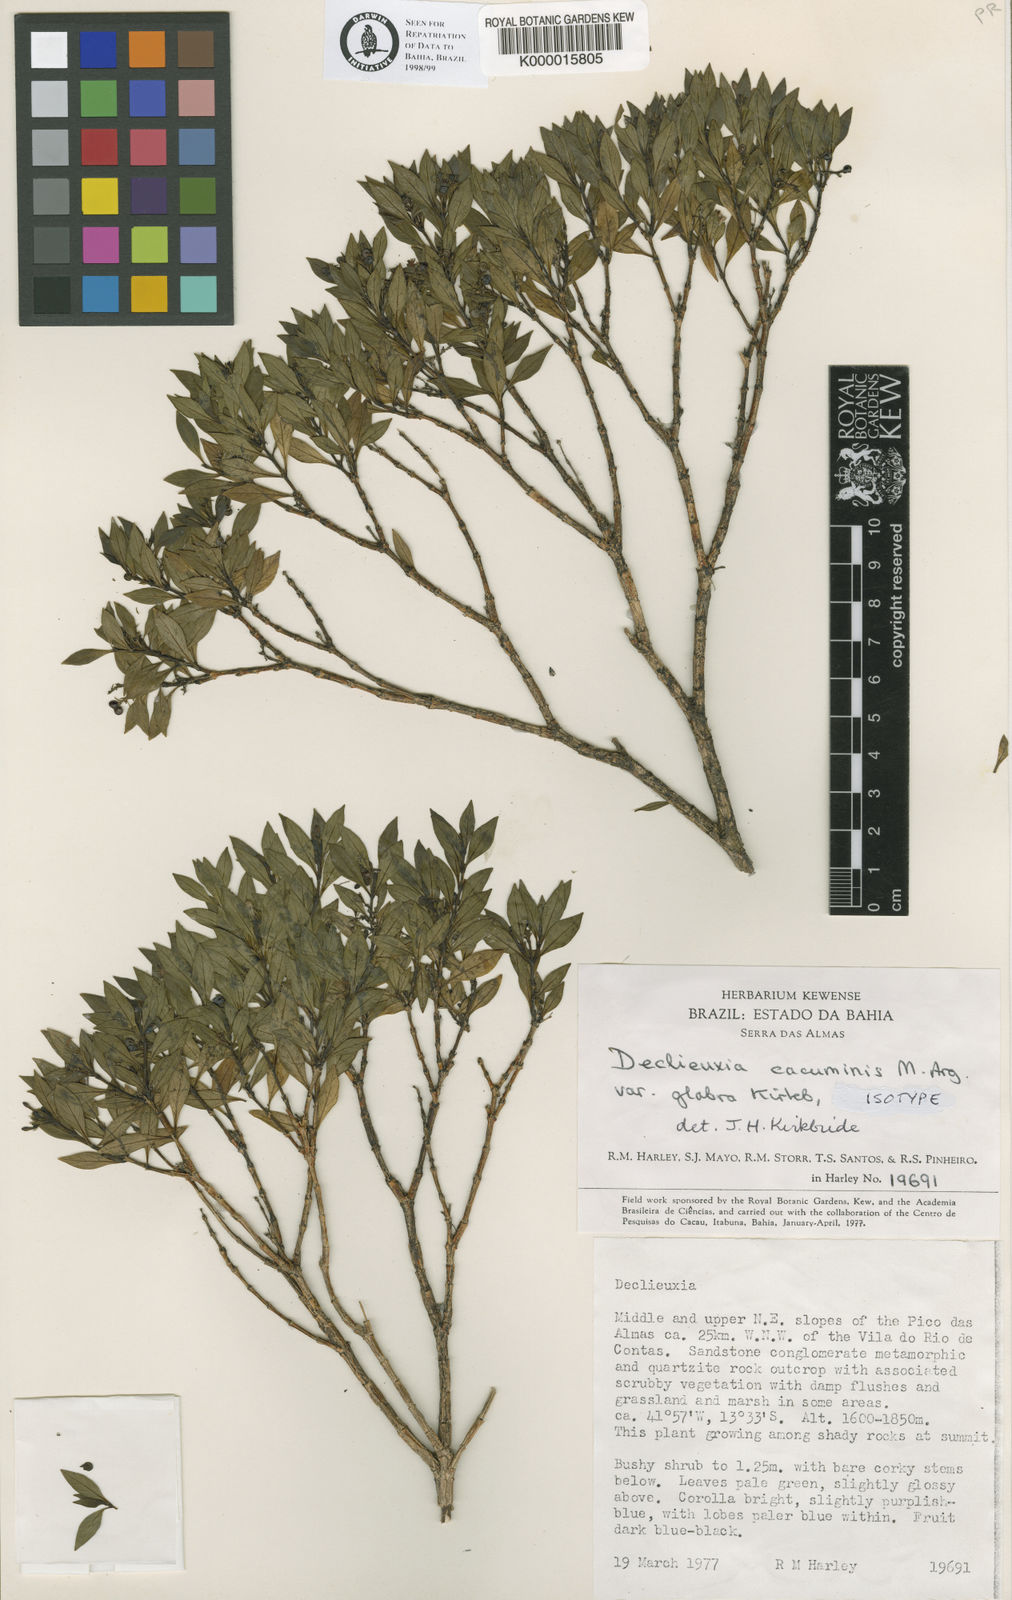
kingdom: Plantae
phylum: Tracheophyta
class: Magnoliopsida
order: Gentianales
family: Rubiaceae
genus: Declieuxia
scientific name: Declieuxia
